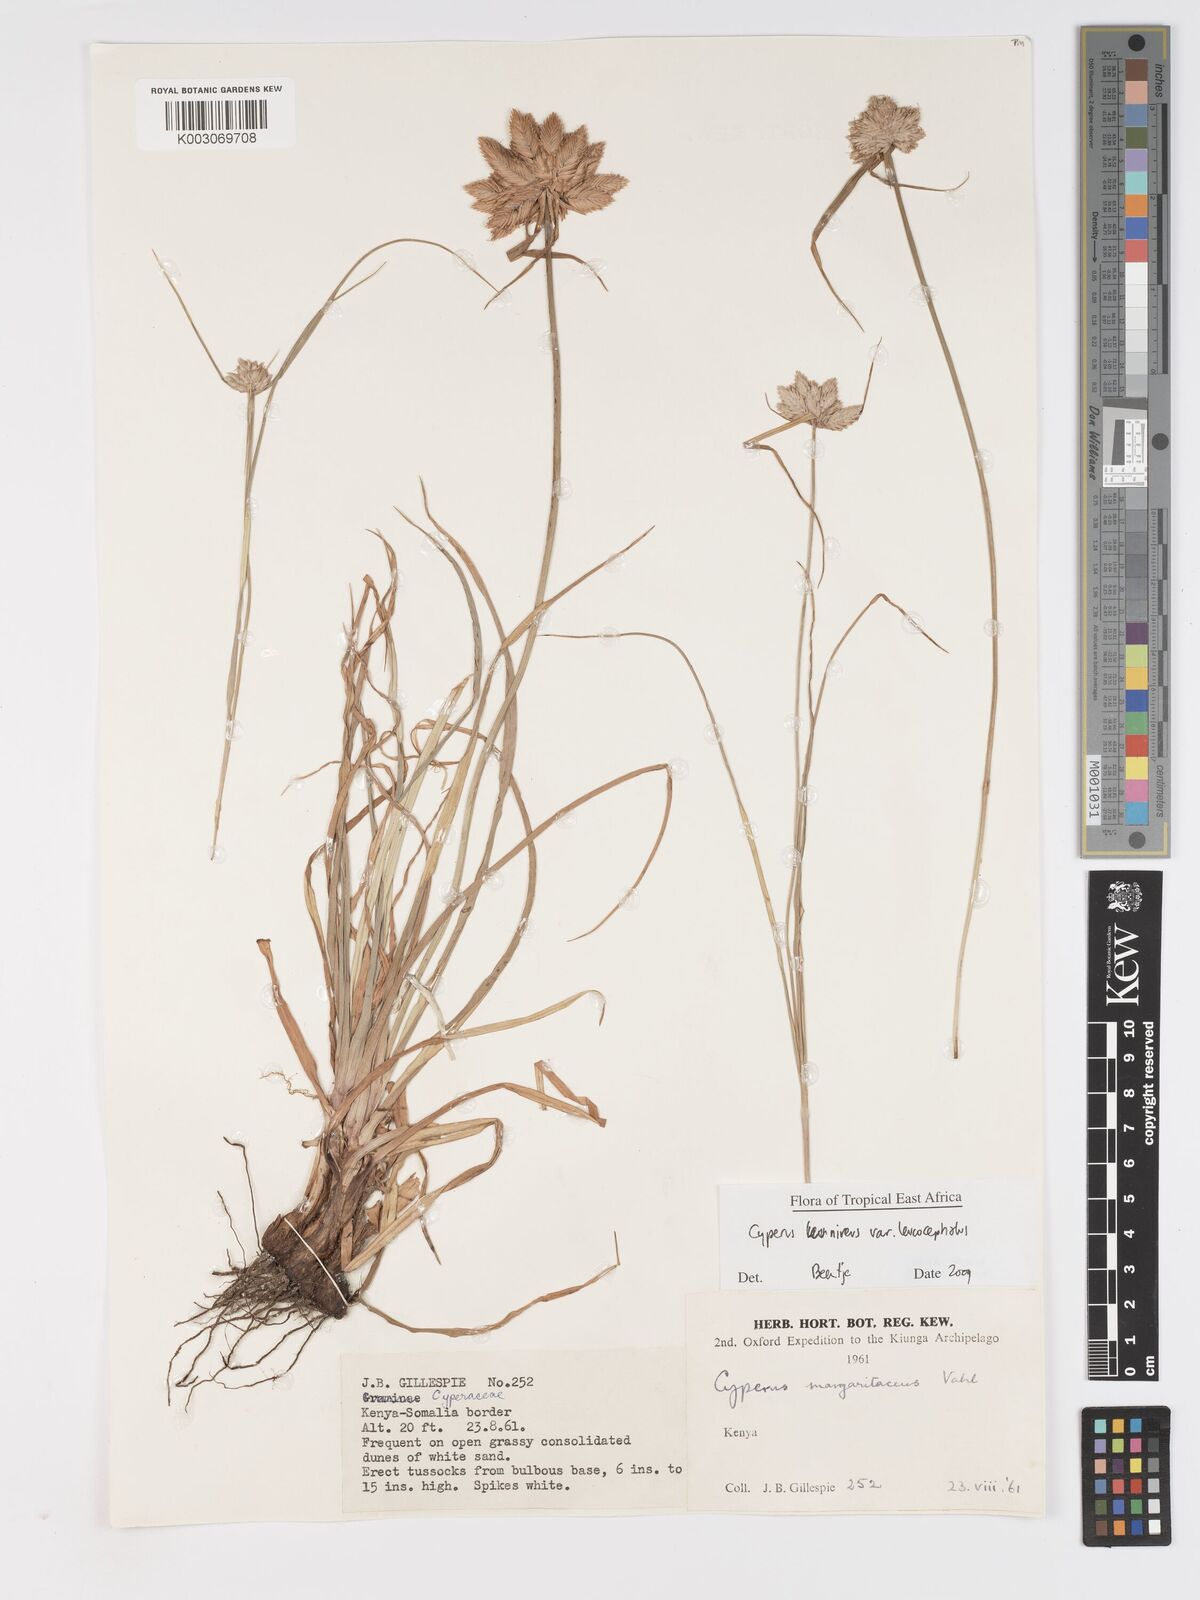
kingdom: Plantae
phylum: Tracheophyta
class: Liliopsida
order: Poales
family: Cyperaceae
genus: Cyperus
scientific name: Cyperus niveus
